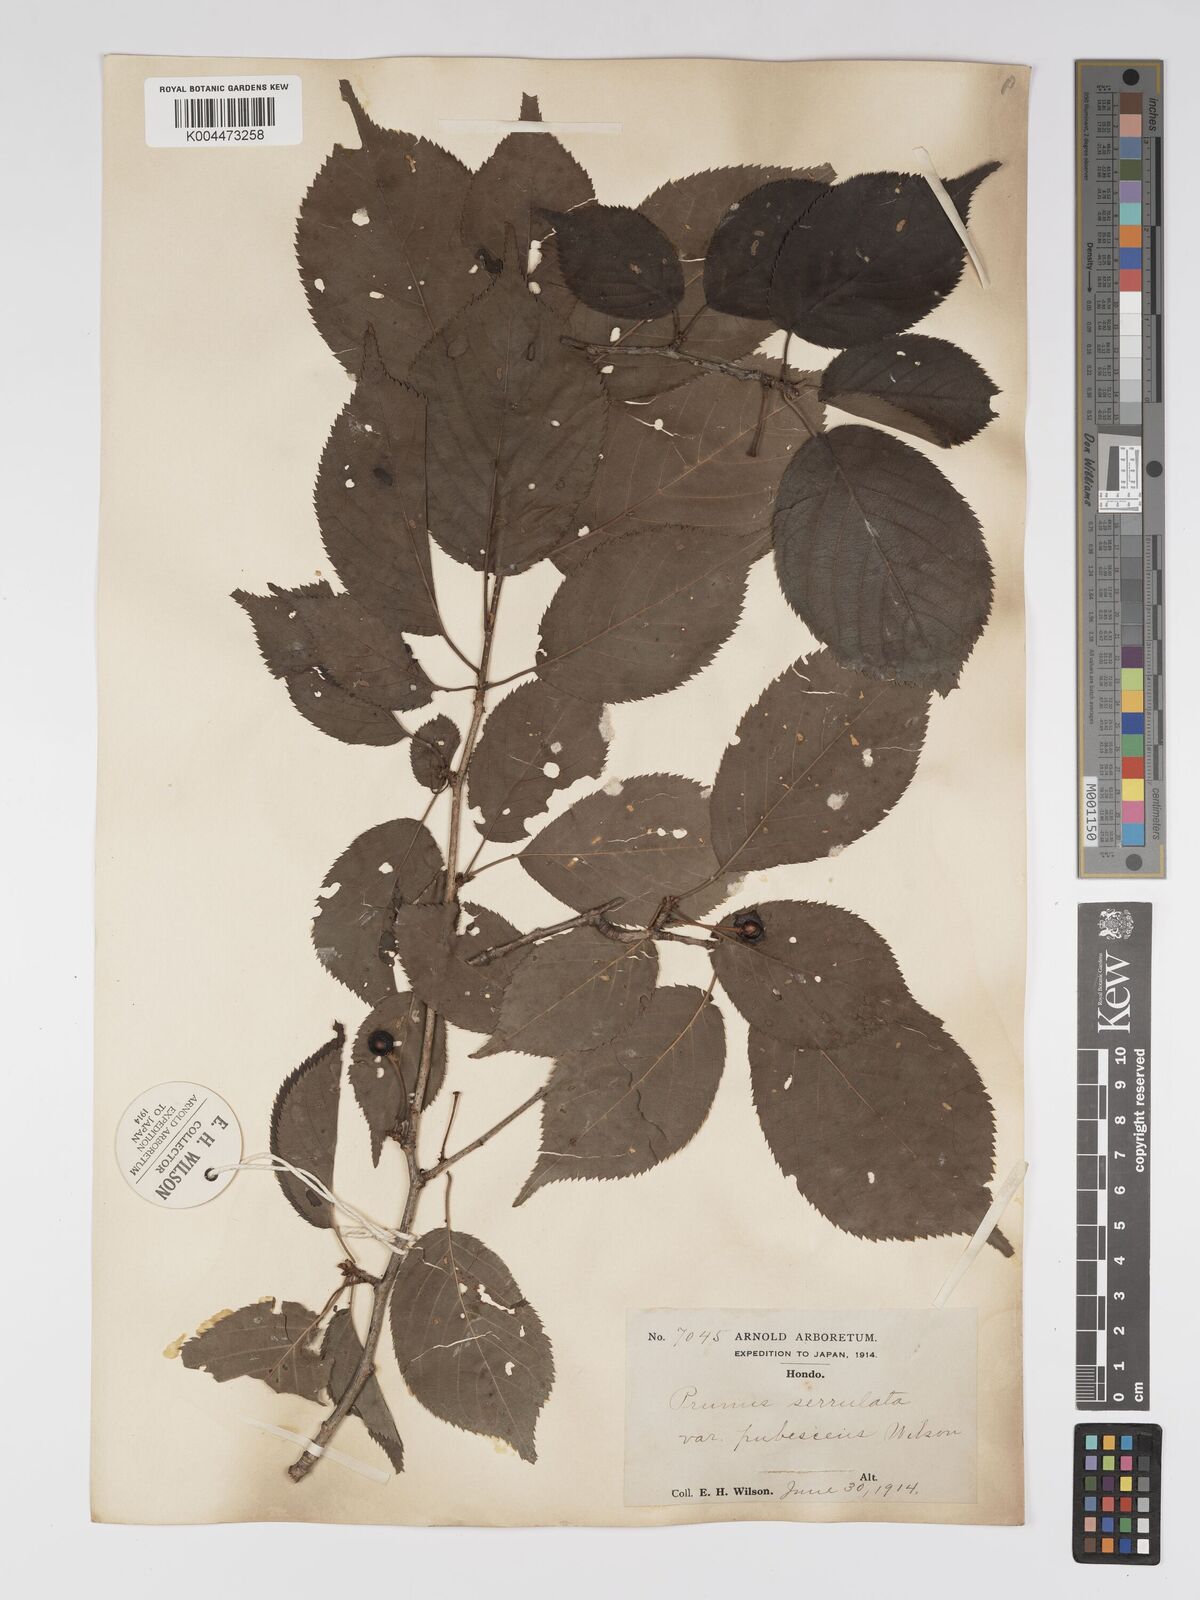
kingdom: Plantae
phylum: Tracheophyta
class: Magnoliopsida
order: Rosales
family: Rosaceae
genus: Prunus
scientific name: Prunus serrulata
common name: Japanese cherry
